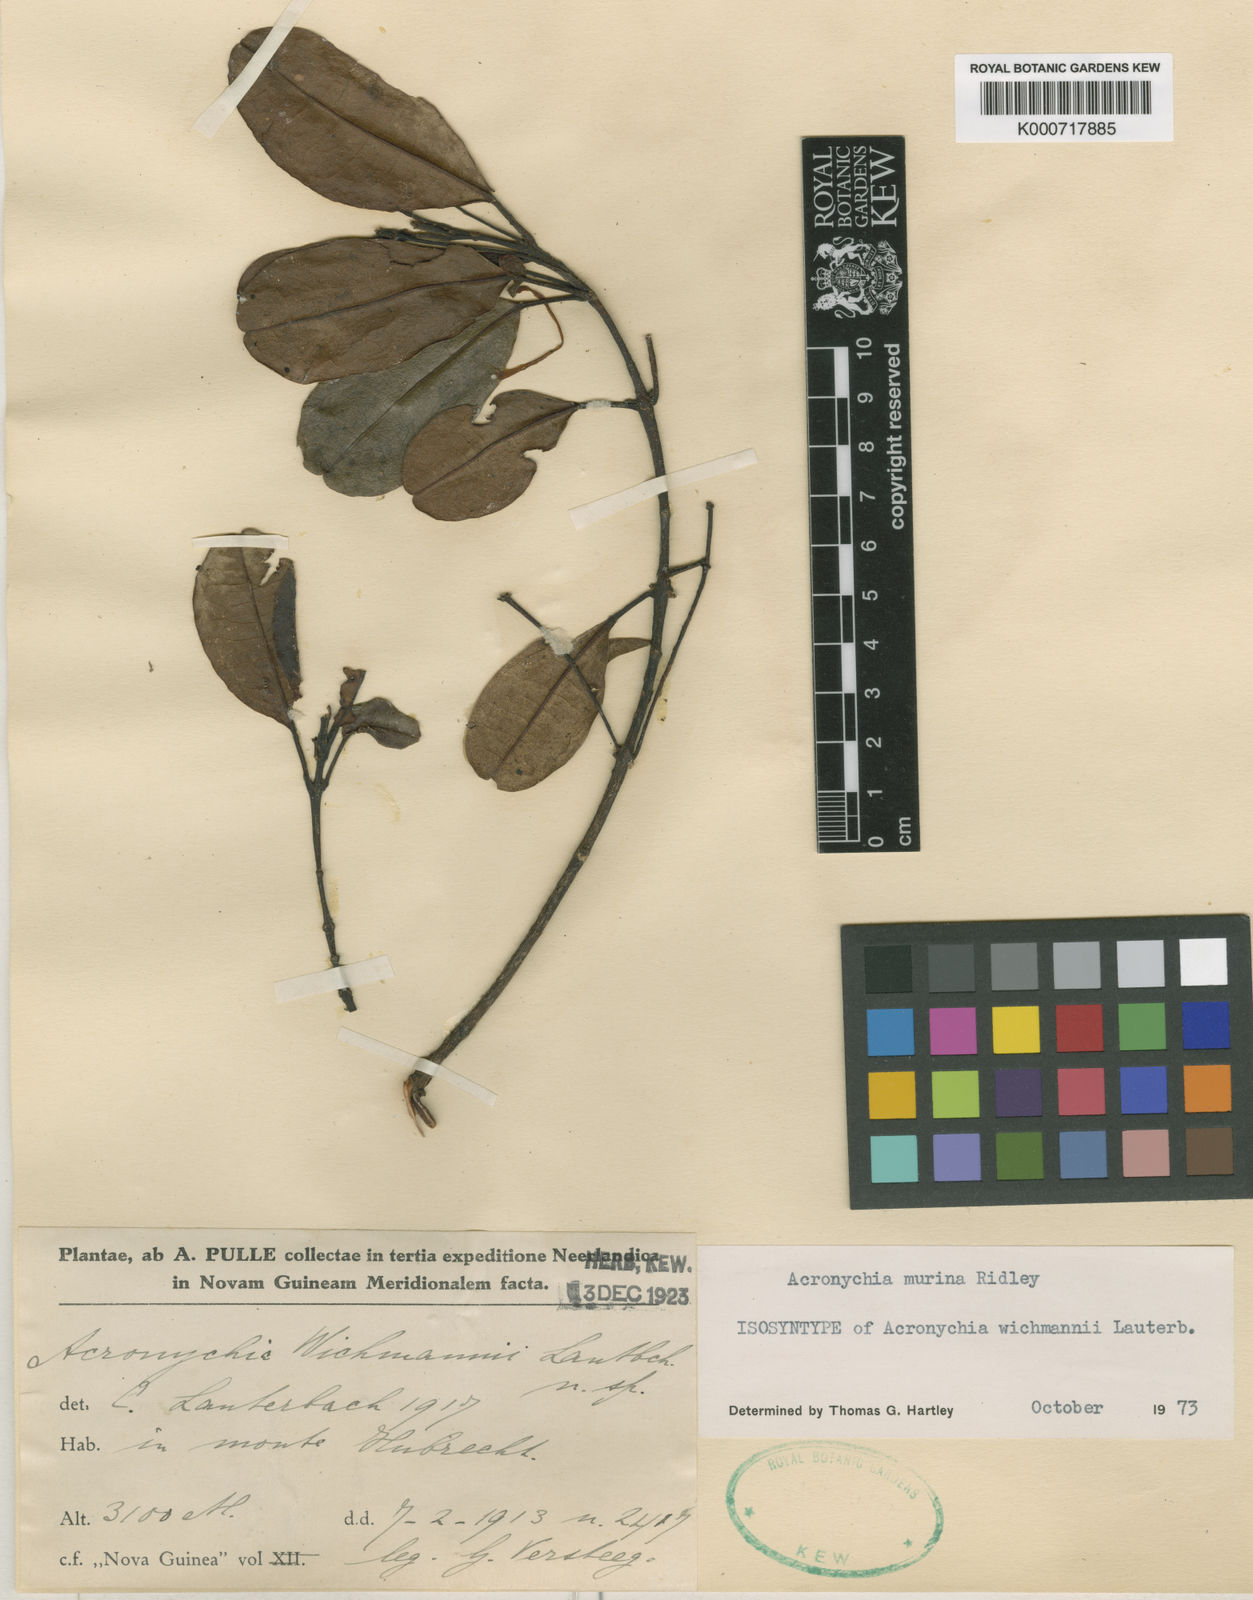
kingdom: Plantae
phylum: Tracheophyta
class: Magnoliopsida
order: Sapindales
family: Rutaceae
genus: Acronychia
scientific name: Acronychia murina
